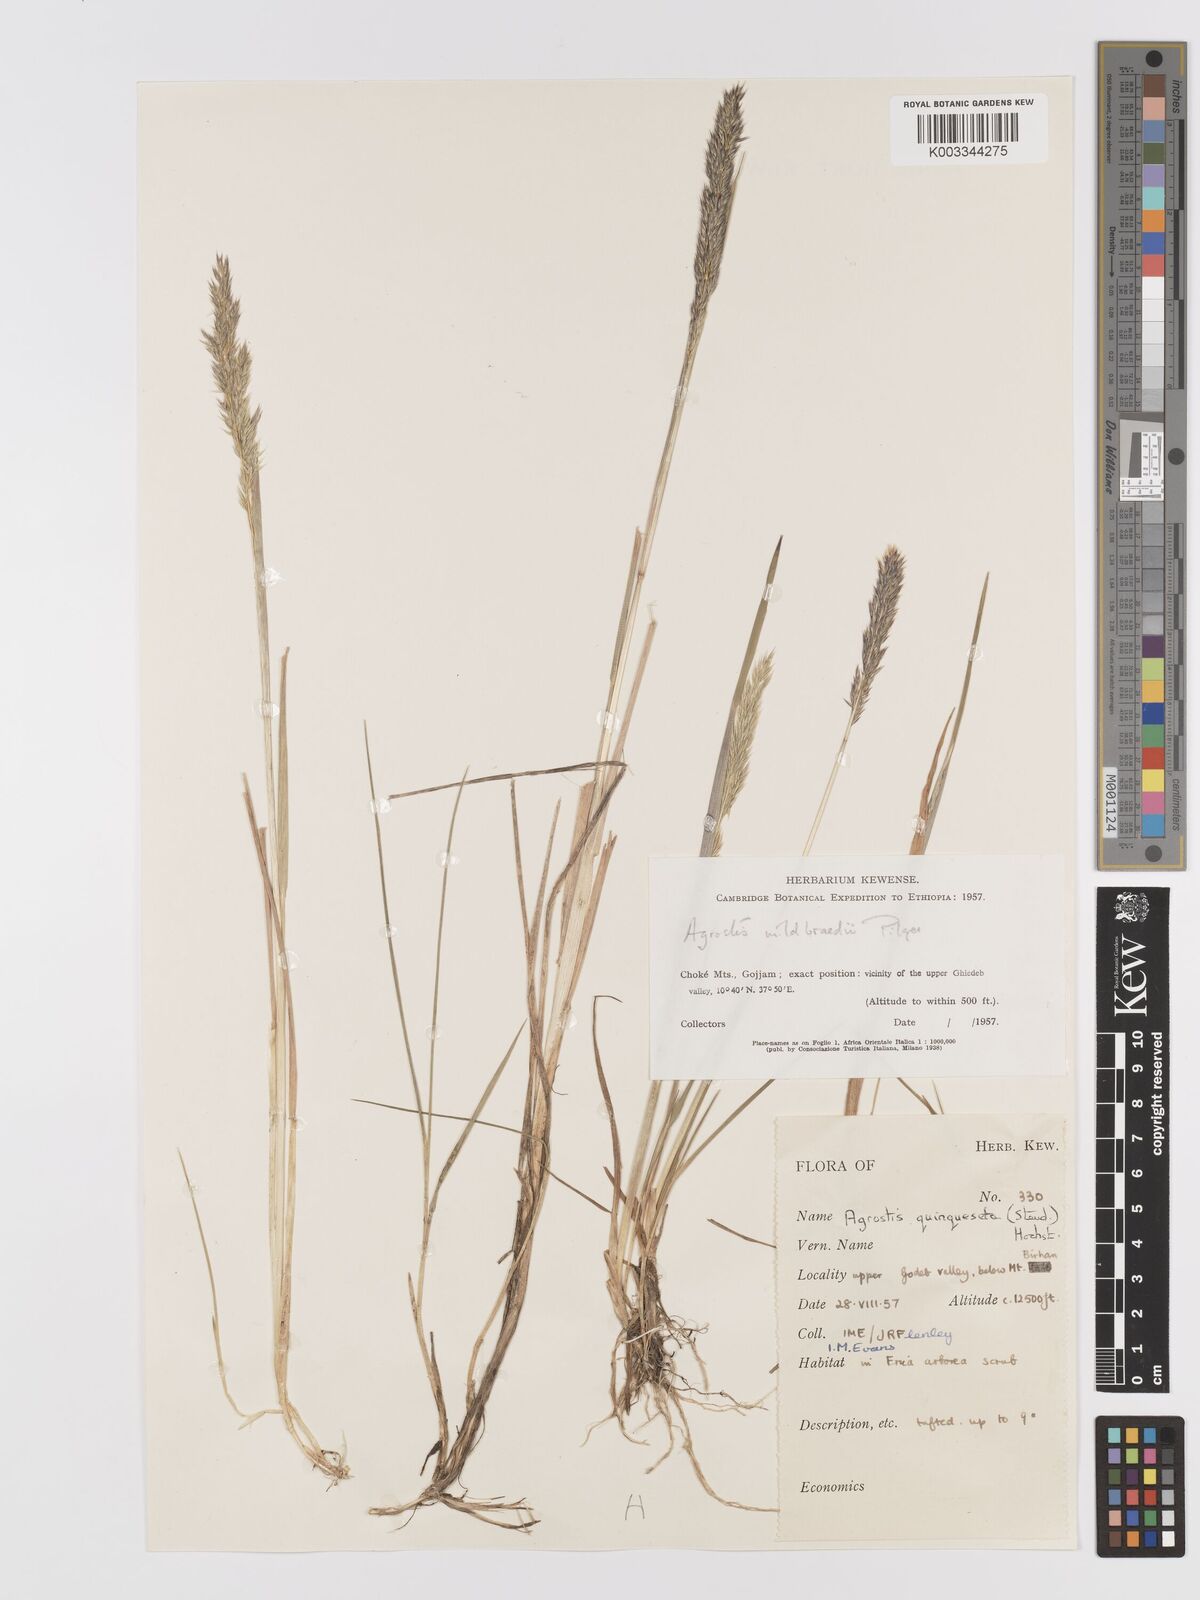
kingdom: Plantae
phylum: Tracheophyta
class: Liliopsida
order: Poales
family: Poaceae
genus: Agrostis
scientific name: Agrostis quinqueseta
